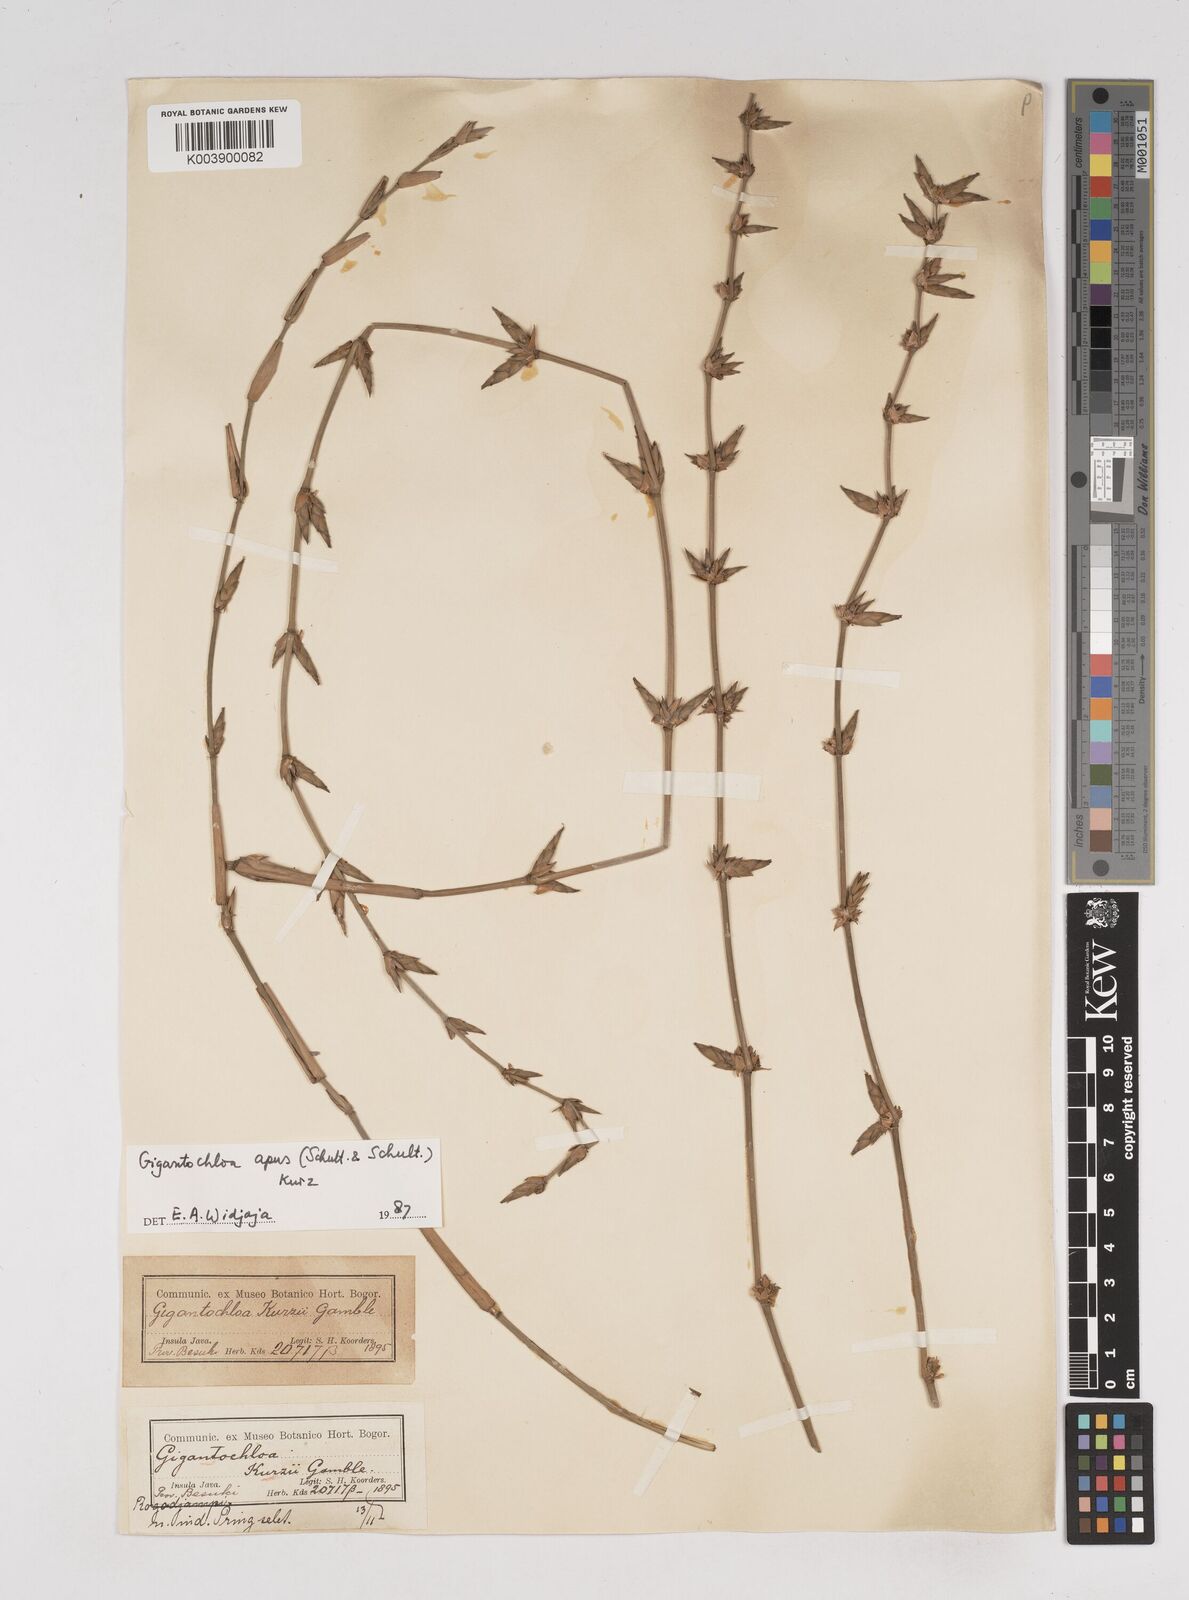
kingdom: Plantae
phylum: Tracheophyta
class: Liliopsida
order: Poales
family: Poaceae
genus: Gigantochloa
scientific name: Gigantochloa apus
